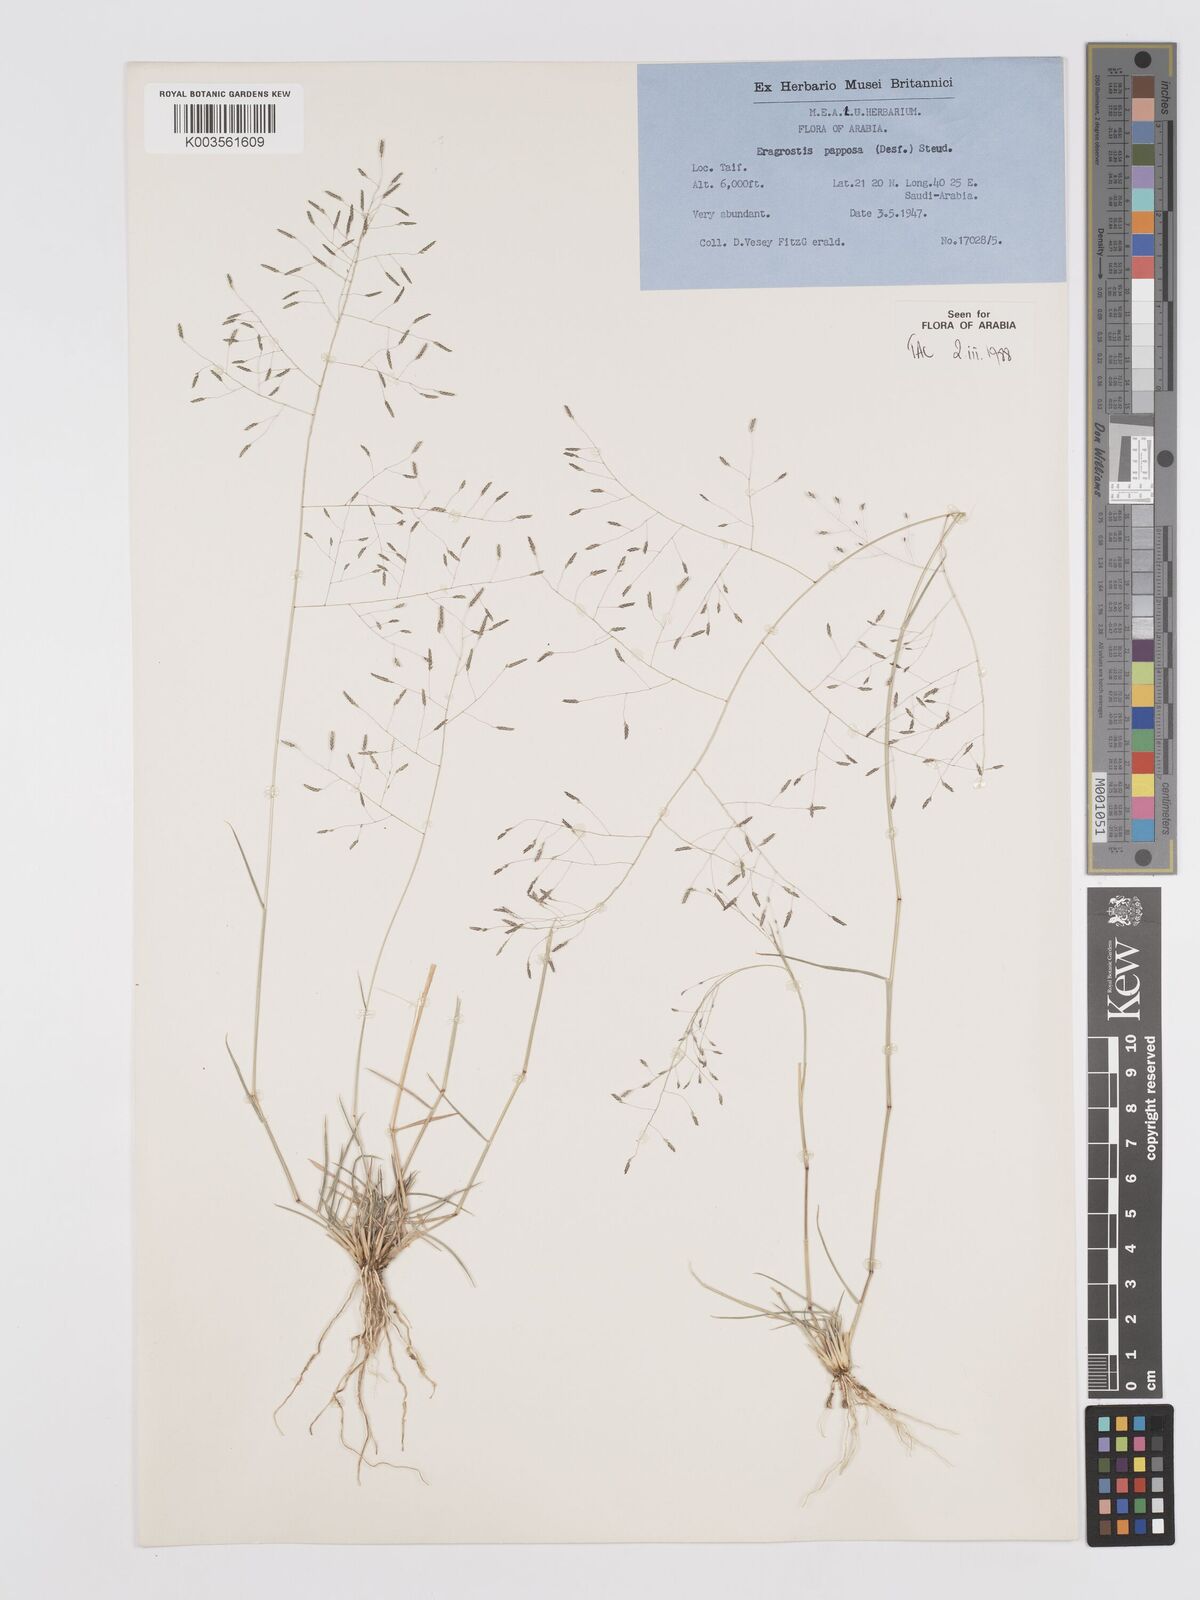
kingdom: Plantae
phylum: Tracheophyta
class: Liliopsida
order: Poales
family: Poaceae
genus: Eragrostis
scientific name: Eragrostis papposa
